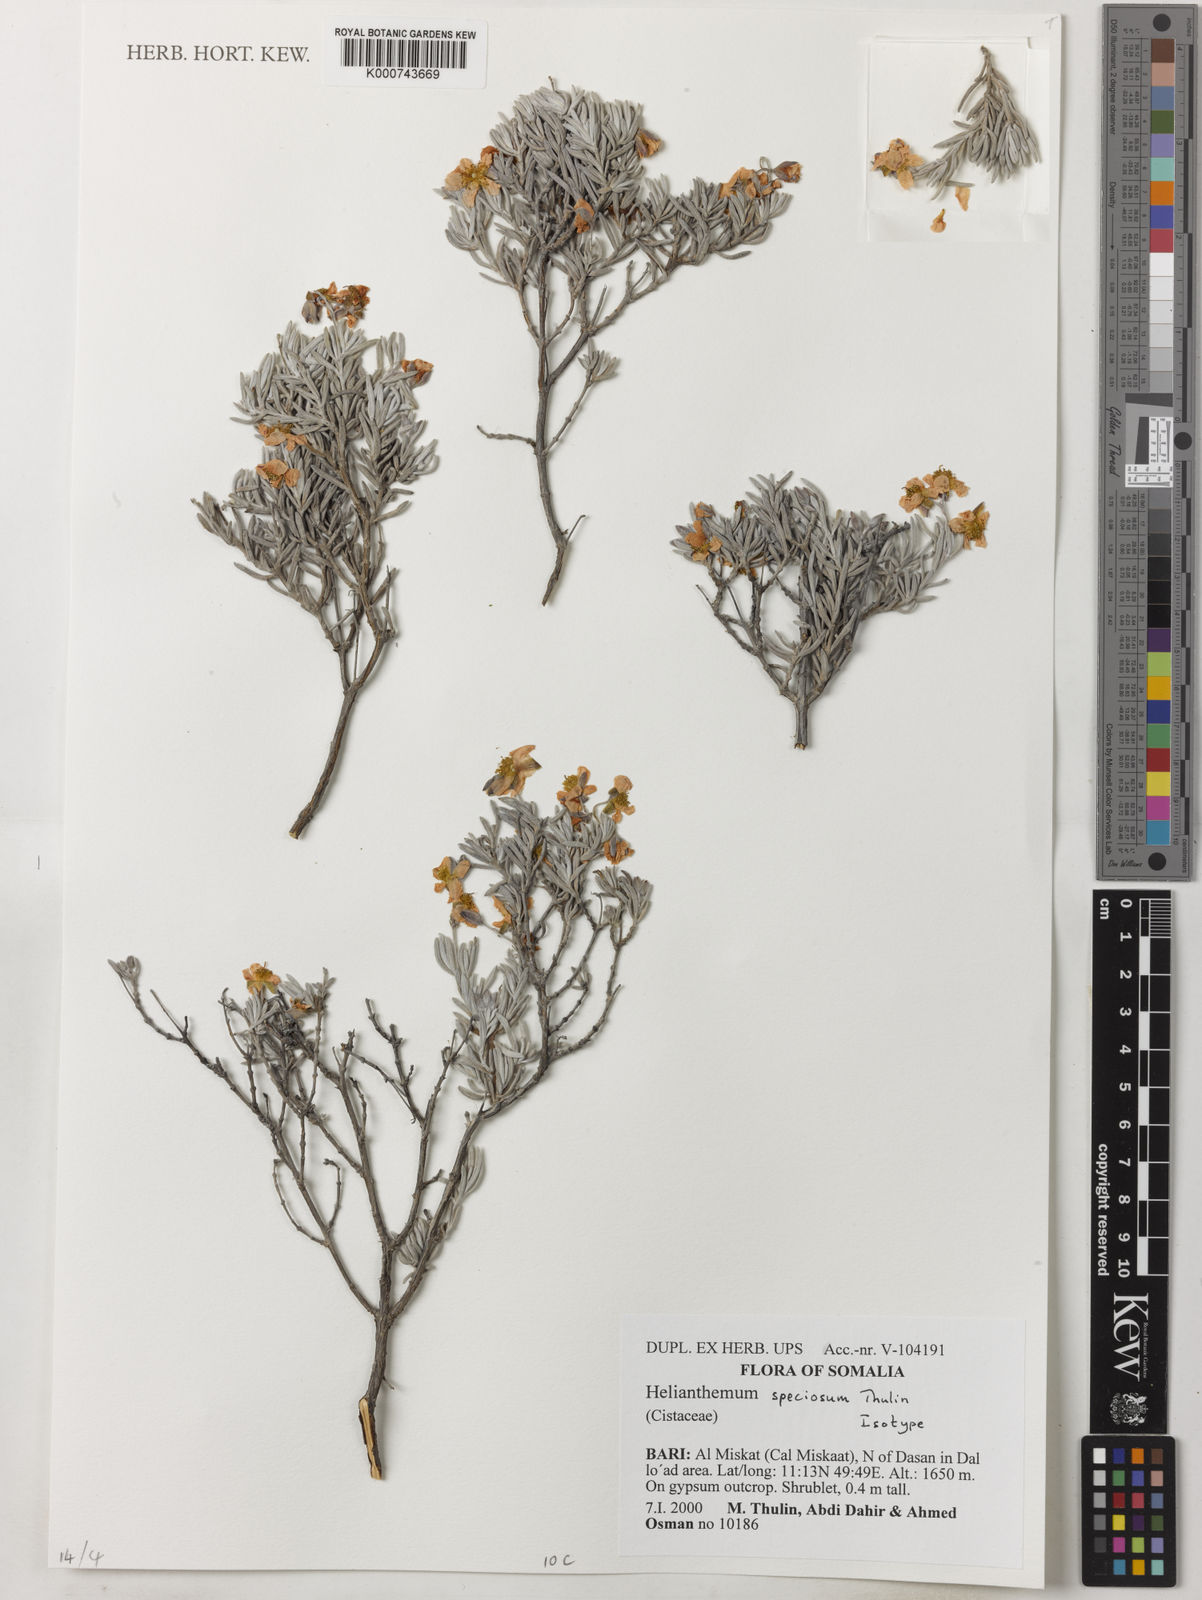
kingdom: Plantae
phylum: Tracheophyta
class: Magnoliopsida
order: Malvales
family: Cistaceae
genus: Helianthemum
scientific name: Helianthemum speciosum
